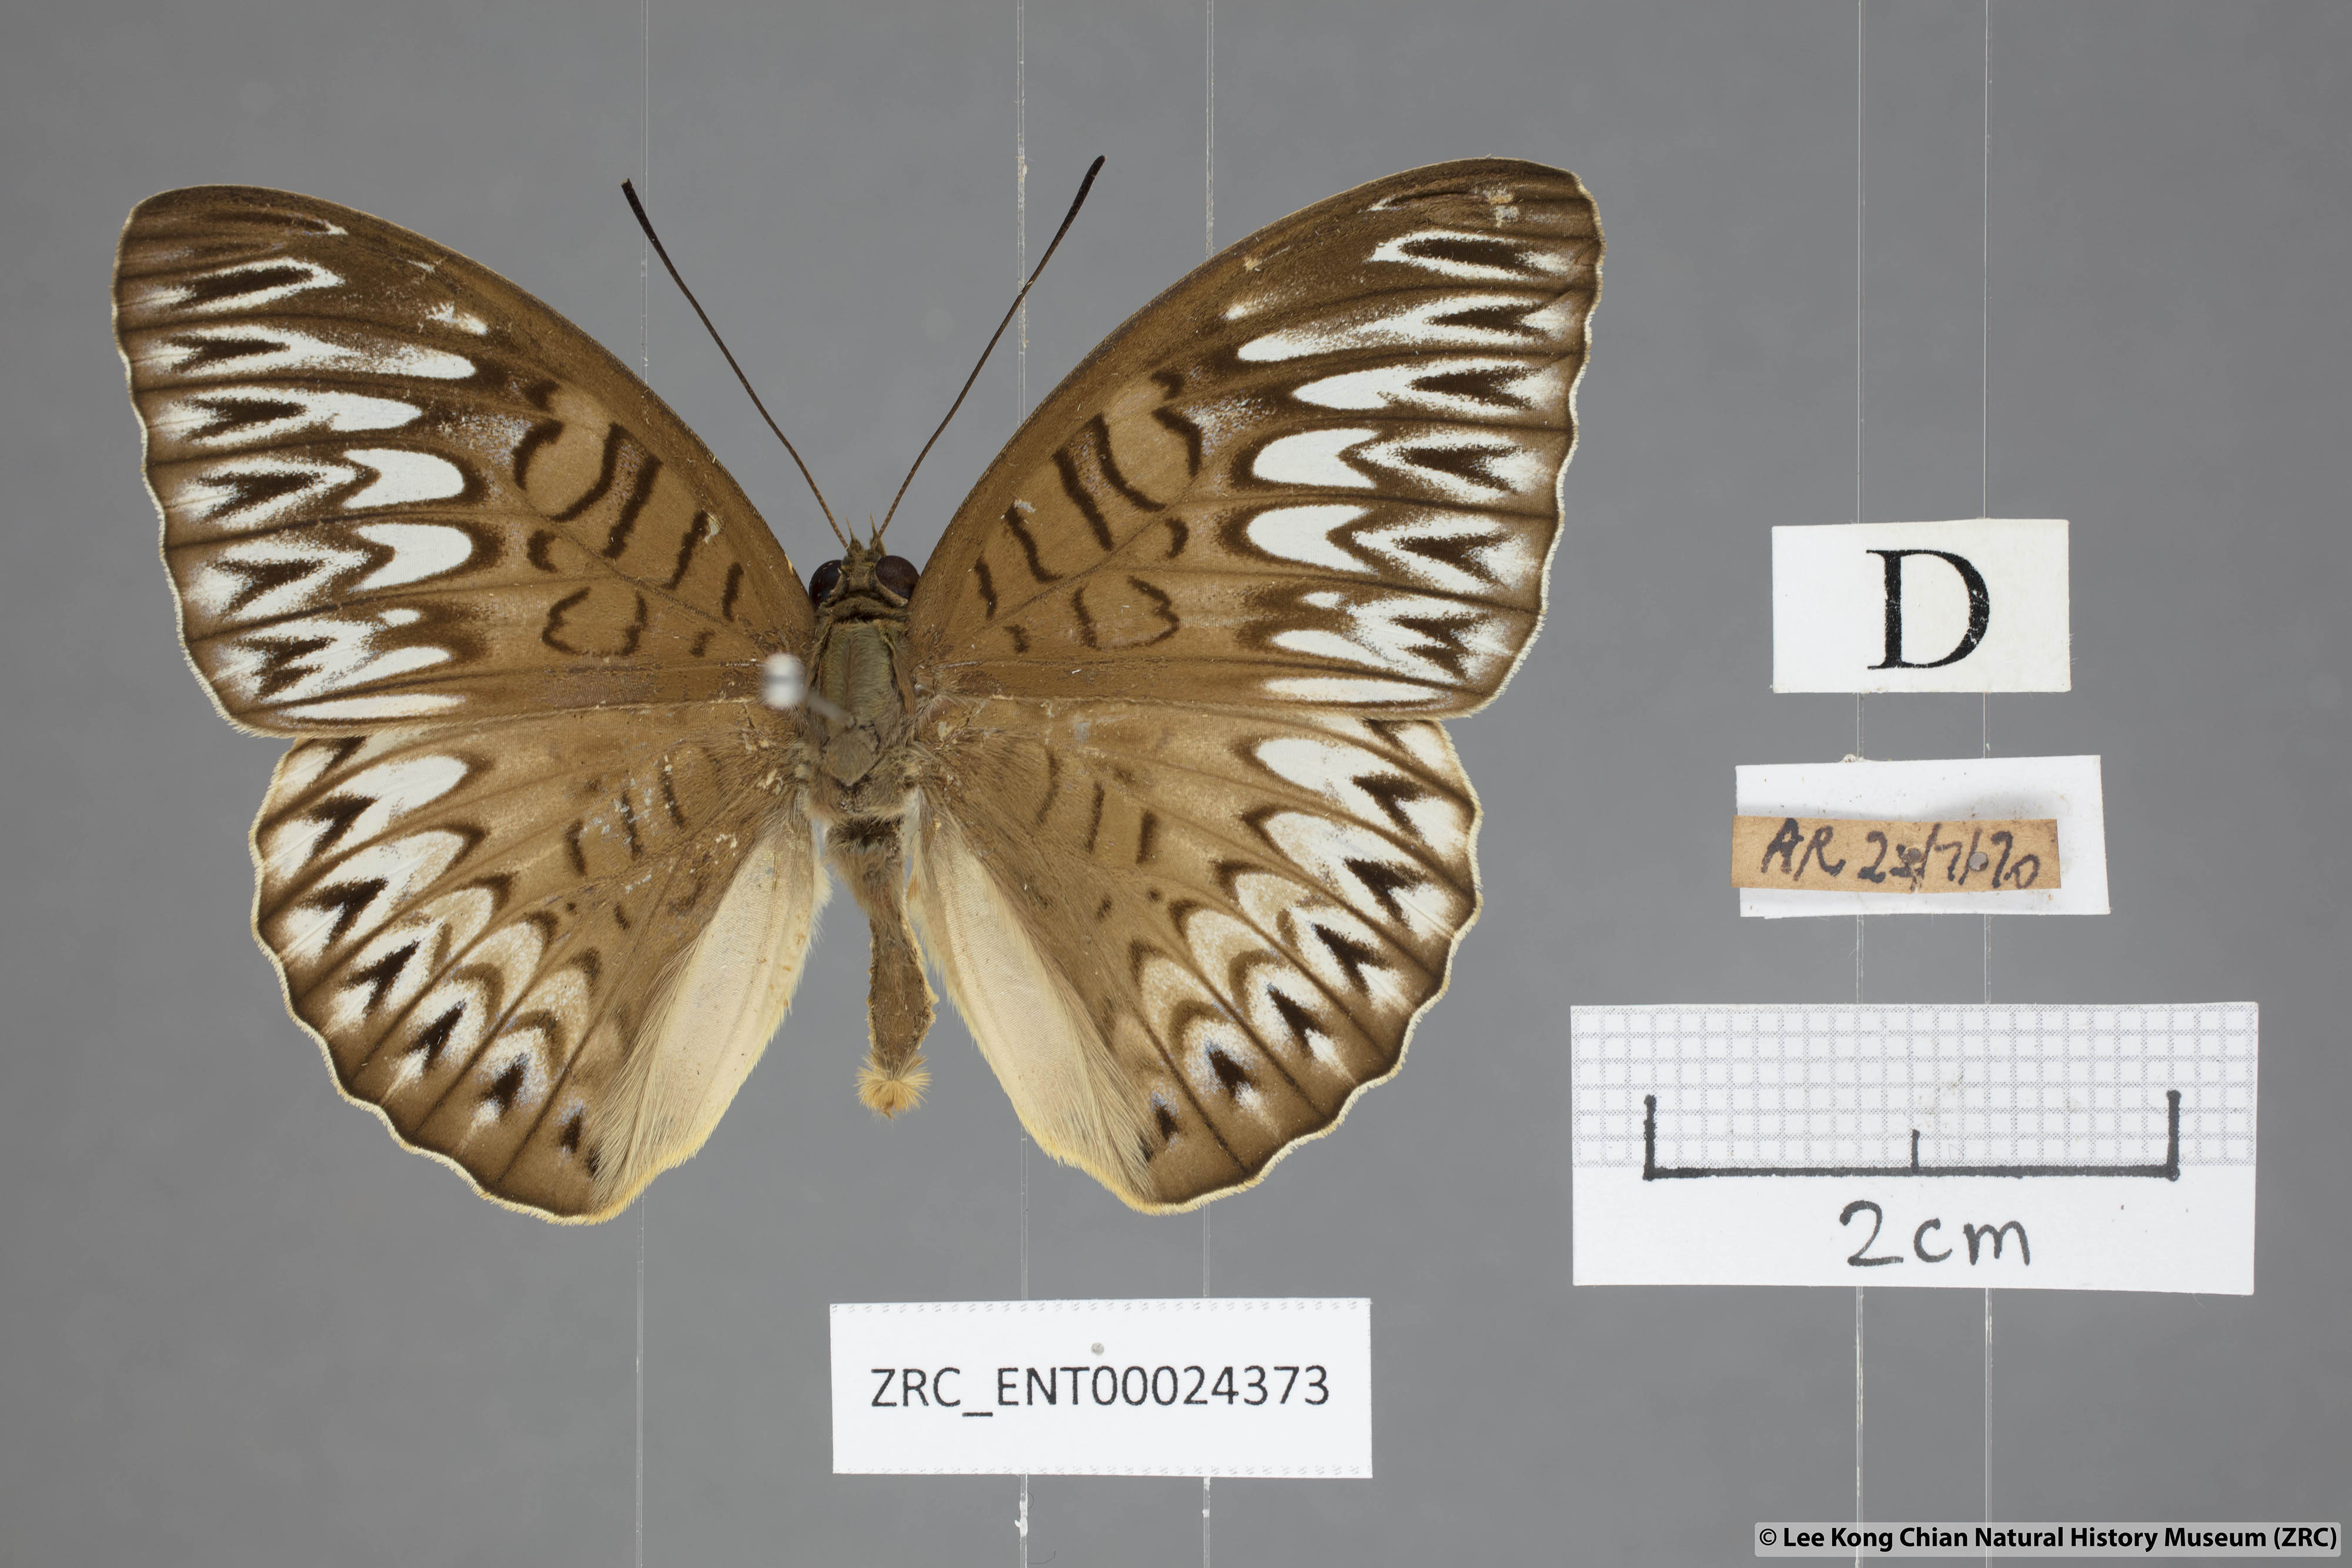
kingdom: Animalia
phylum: Arthropoda
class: Insecta
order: Lepidoptera
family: Nymphalidae
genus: Tanaecia
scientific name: Tanaecia aruna
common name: Short-banded viscount
